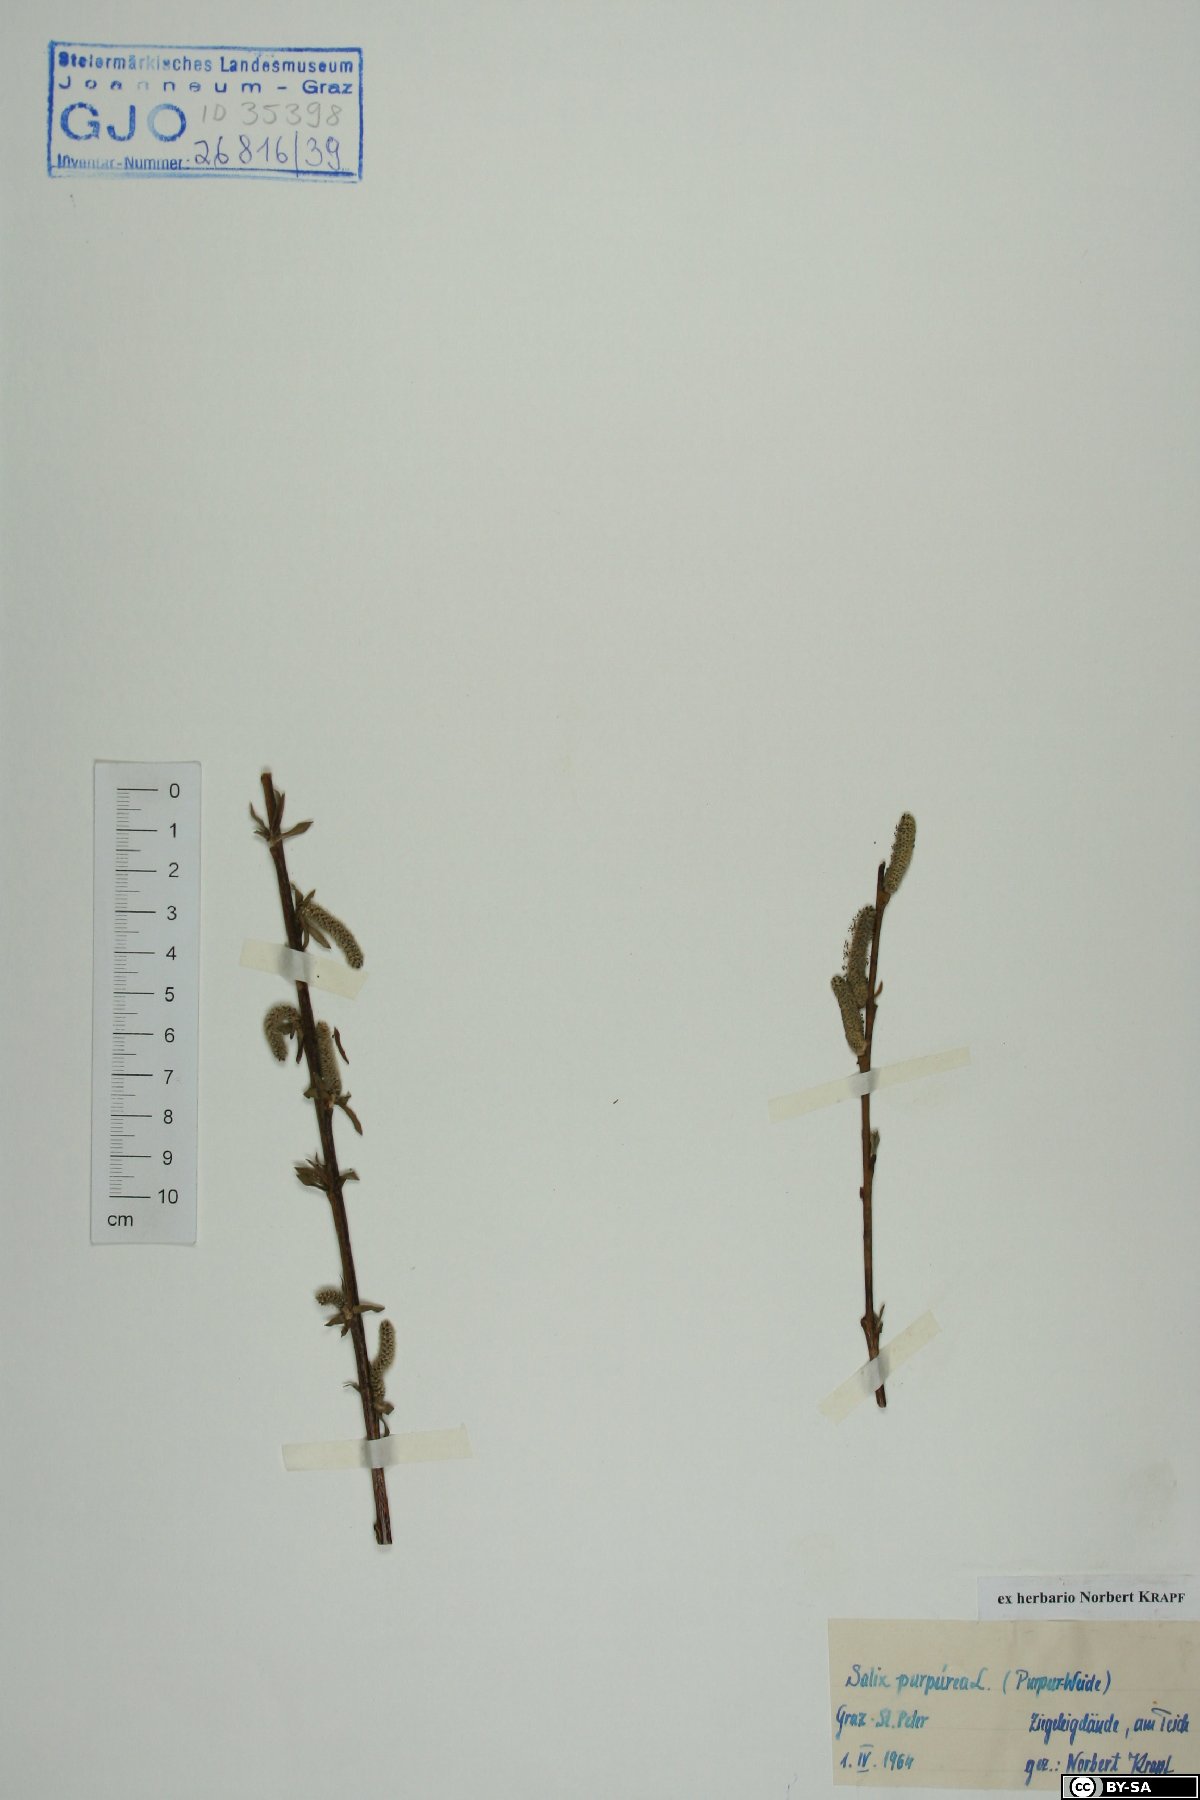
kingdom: Plantae
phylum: Tracheophyta
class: Magnoliopsida
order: Malpighiales
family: Salicaceae
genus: Salix
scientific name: Salix purpurea
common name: Purple willow
